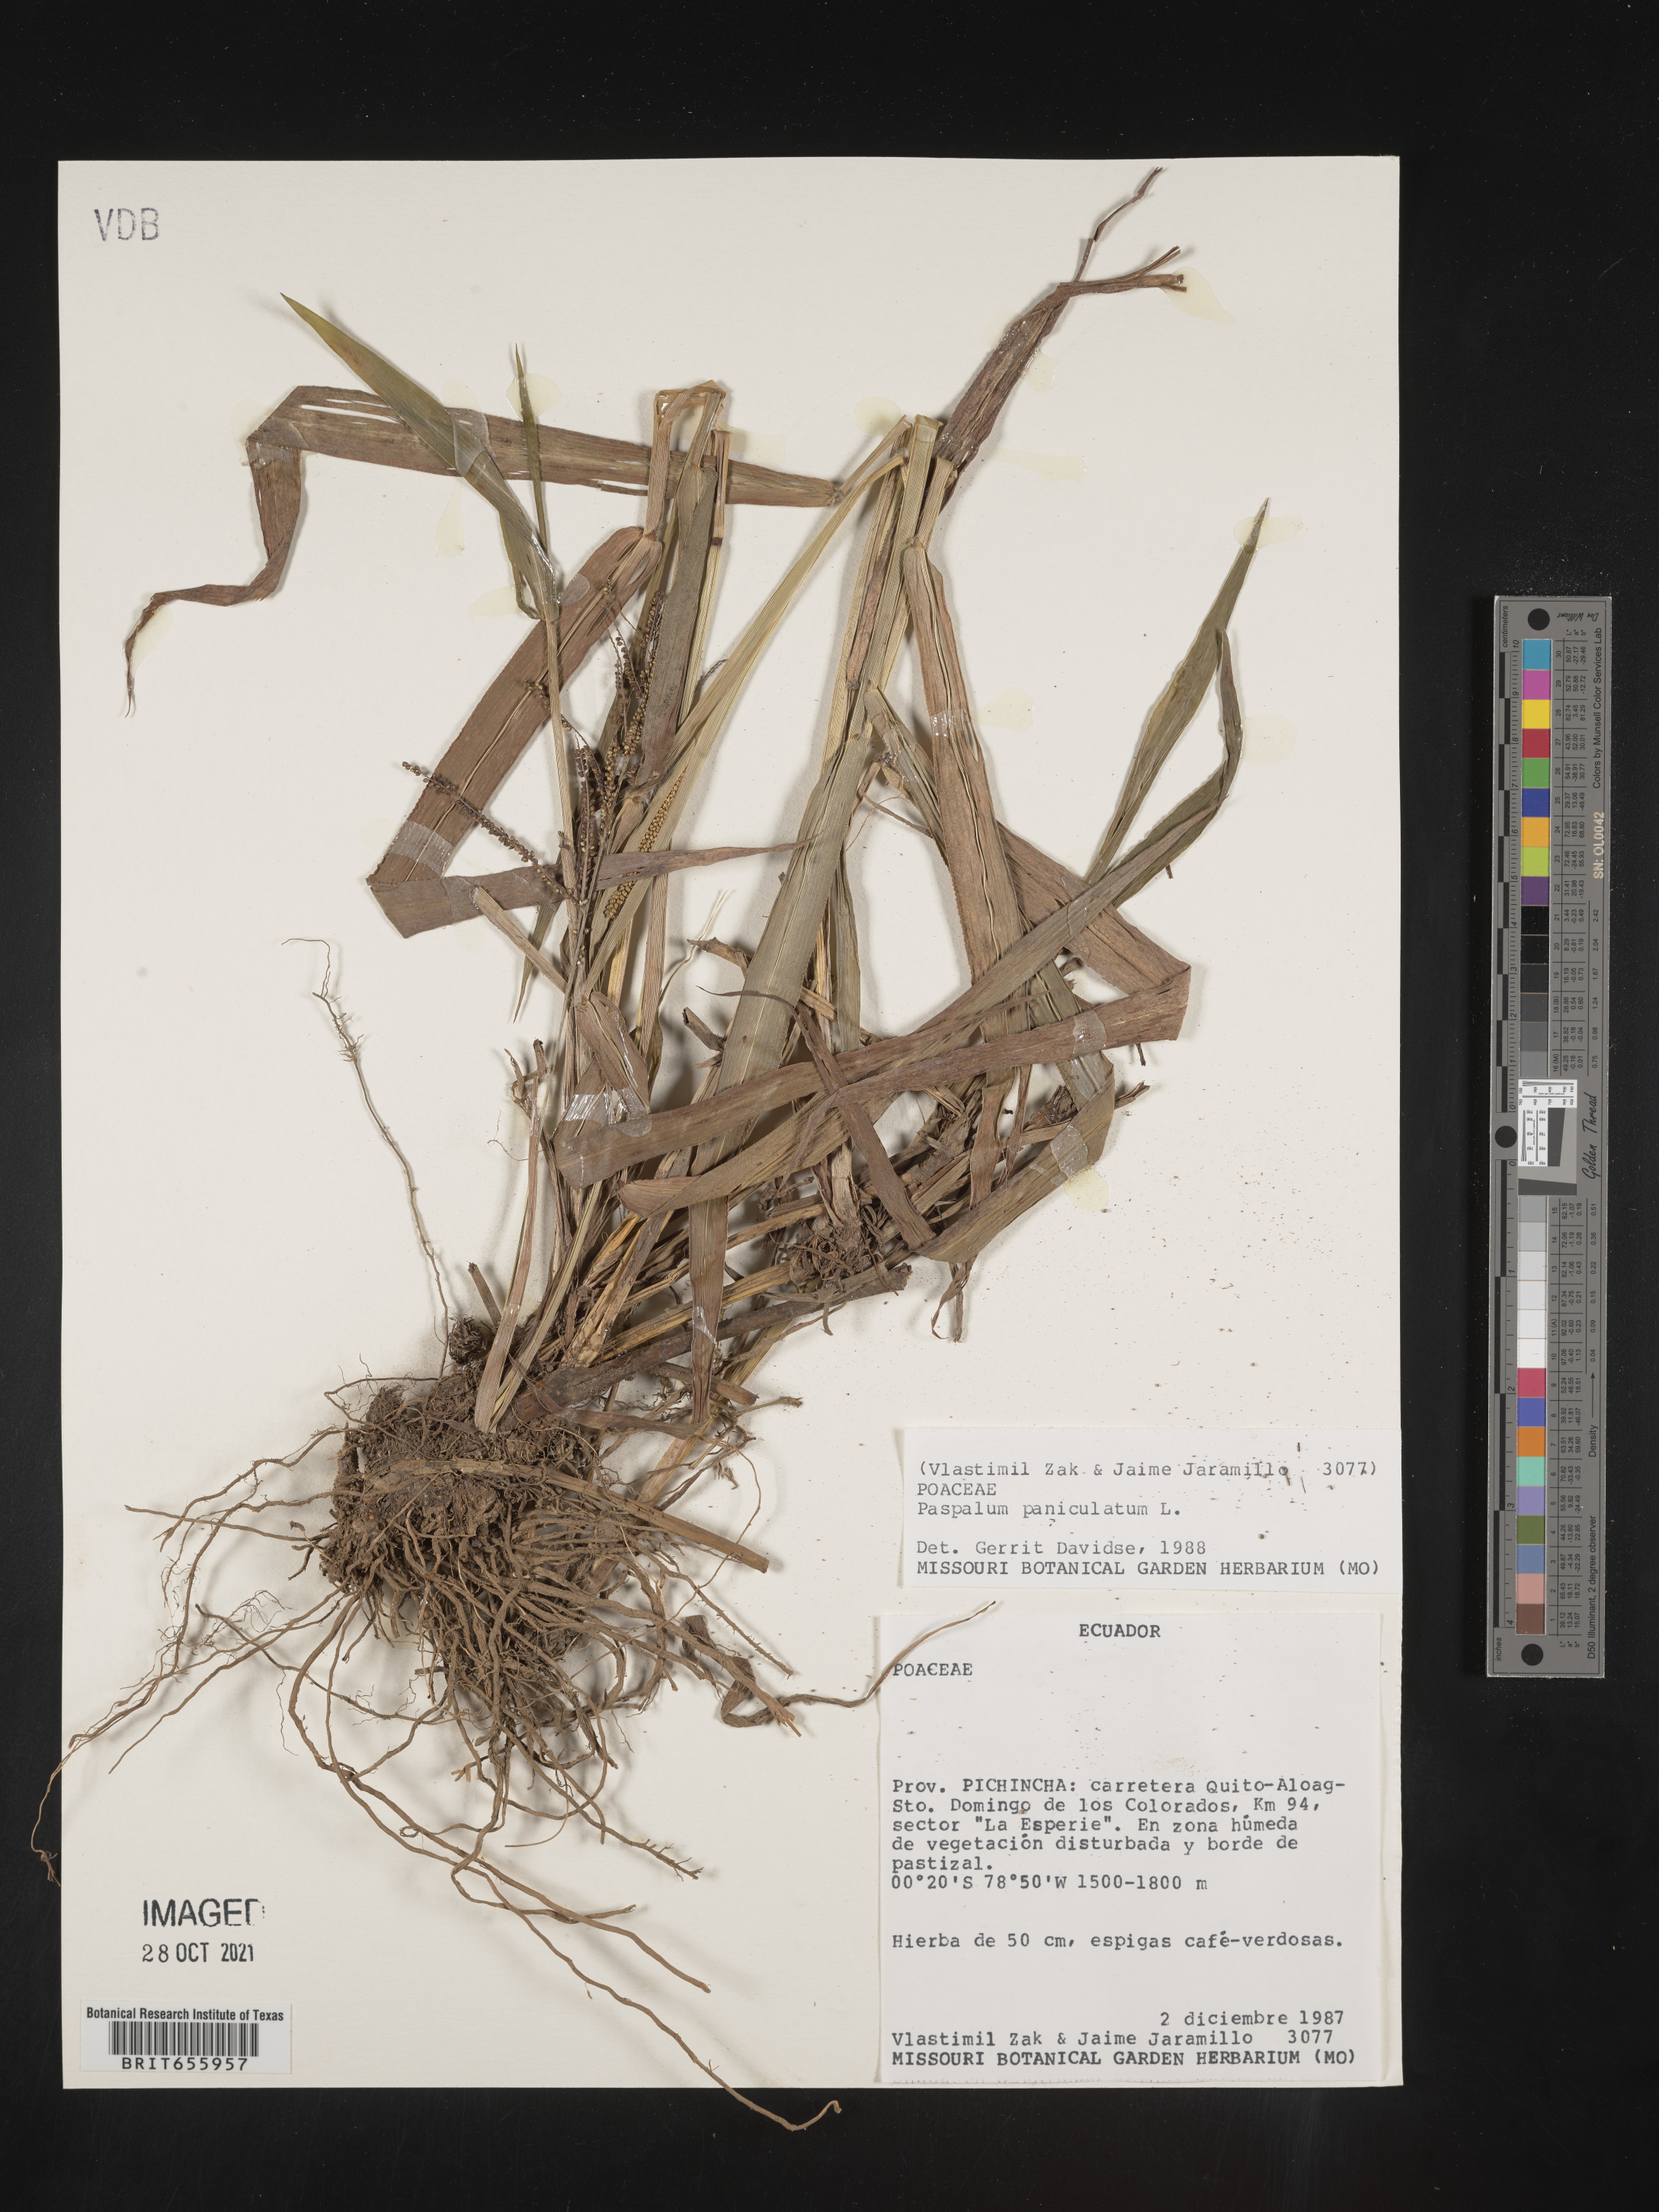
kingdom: Plantae
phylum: Tracheophyta
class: Liliopsida
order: Poales
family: Poaceae
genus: Paspalum
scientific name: Paspalum
